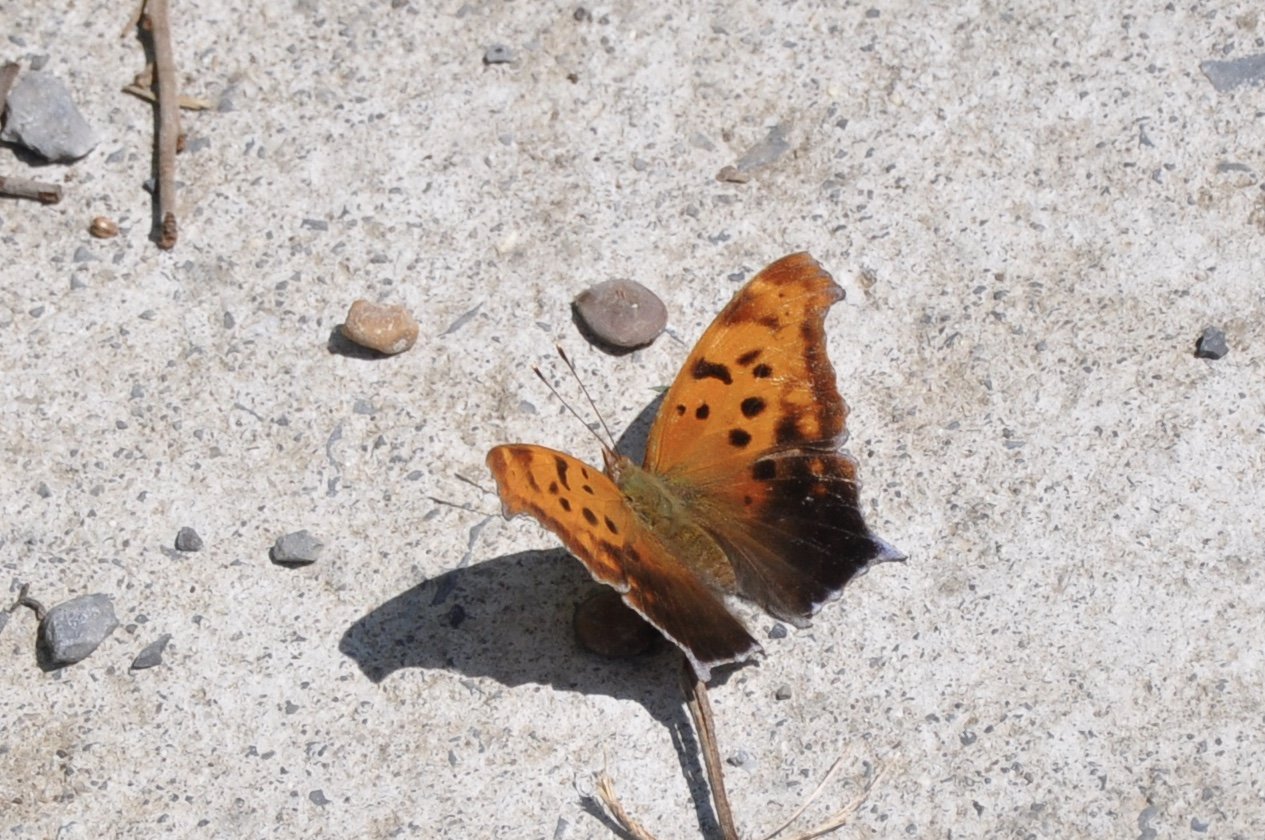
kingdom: Animalia
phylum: Arthropoda
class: Insecta
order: Lepidoptera
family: Nymphalidae
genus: Polygonia
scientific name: Polygonia interrogationis
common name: Question Mark
